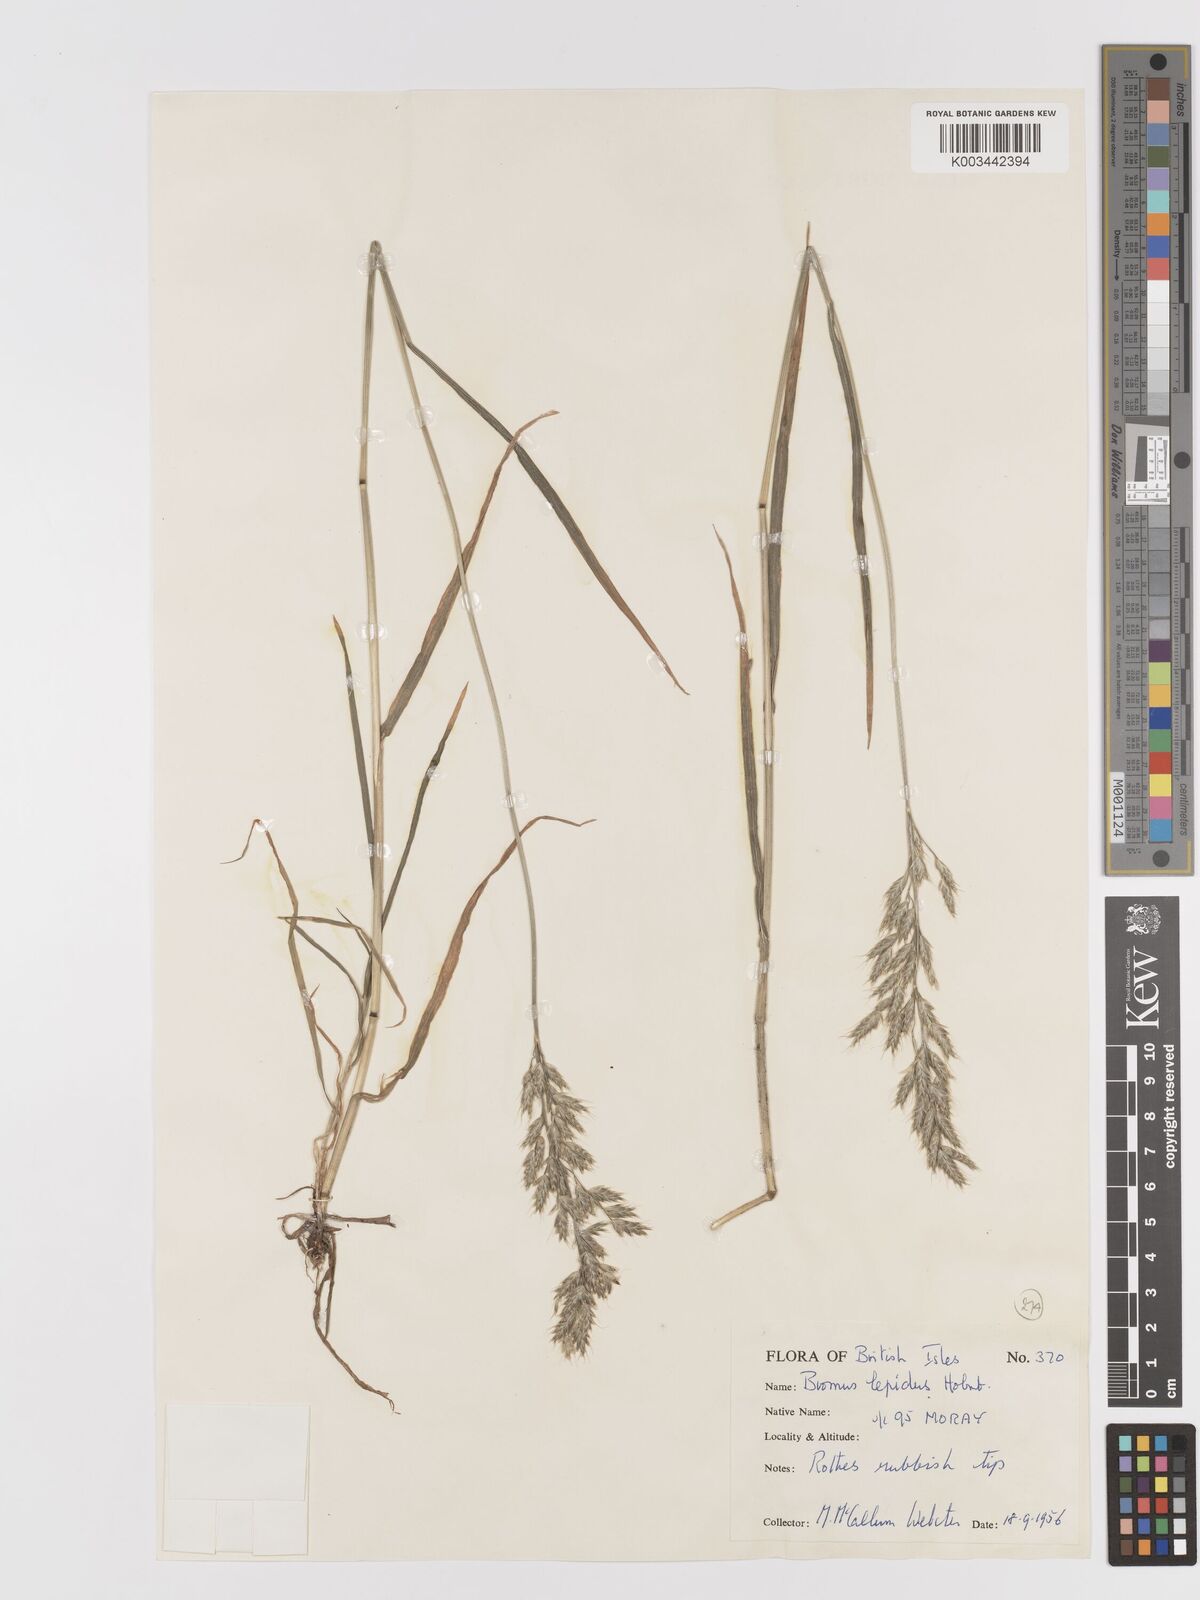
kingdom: Plantae
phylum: Tracheophyta
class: Liliopsida
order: Poales
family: Poaceae
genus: Bromus
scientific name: Bromus lepidus
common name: Slender soft-brome
